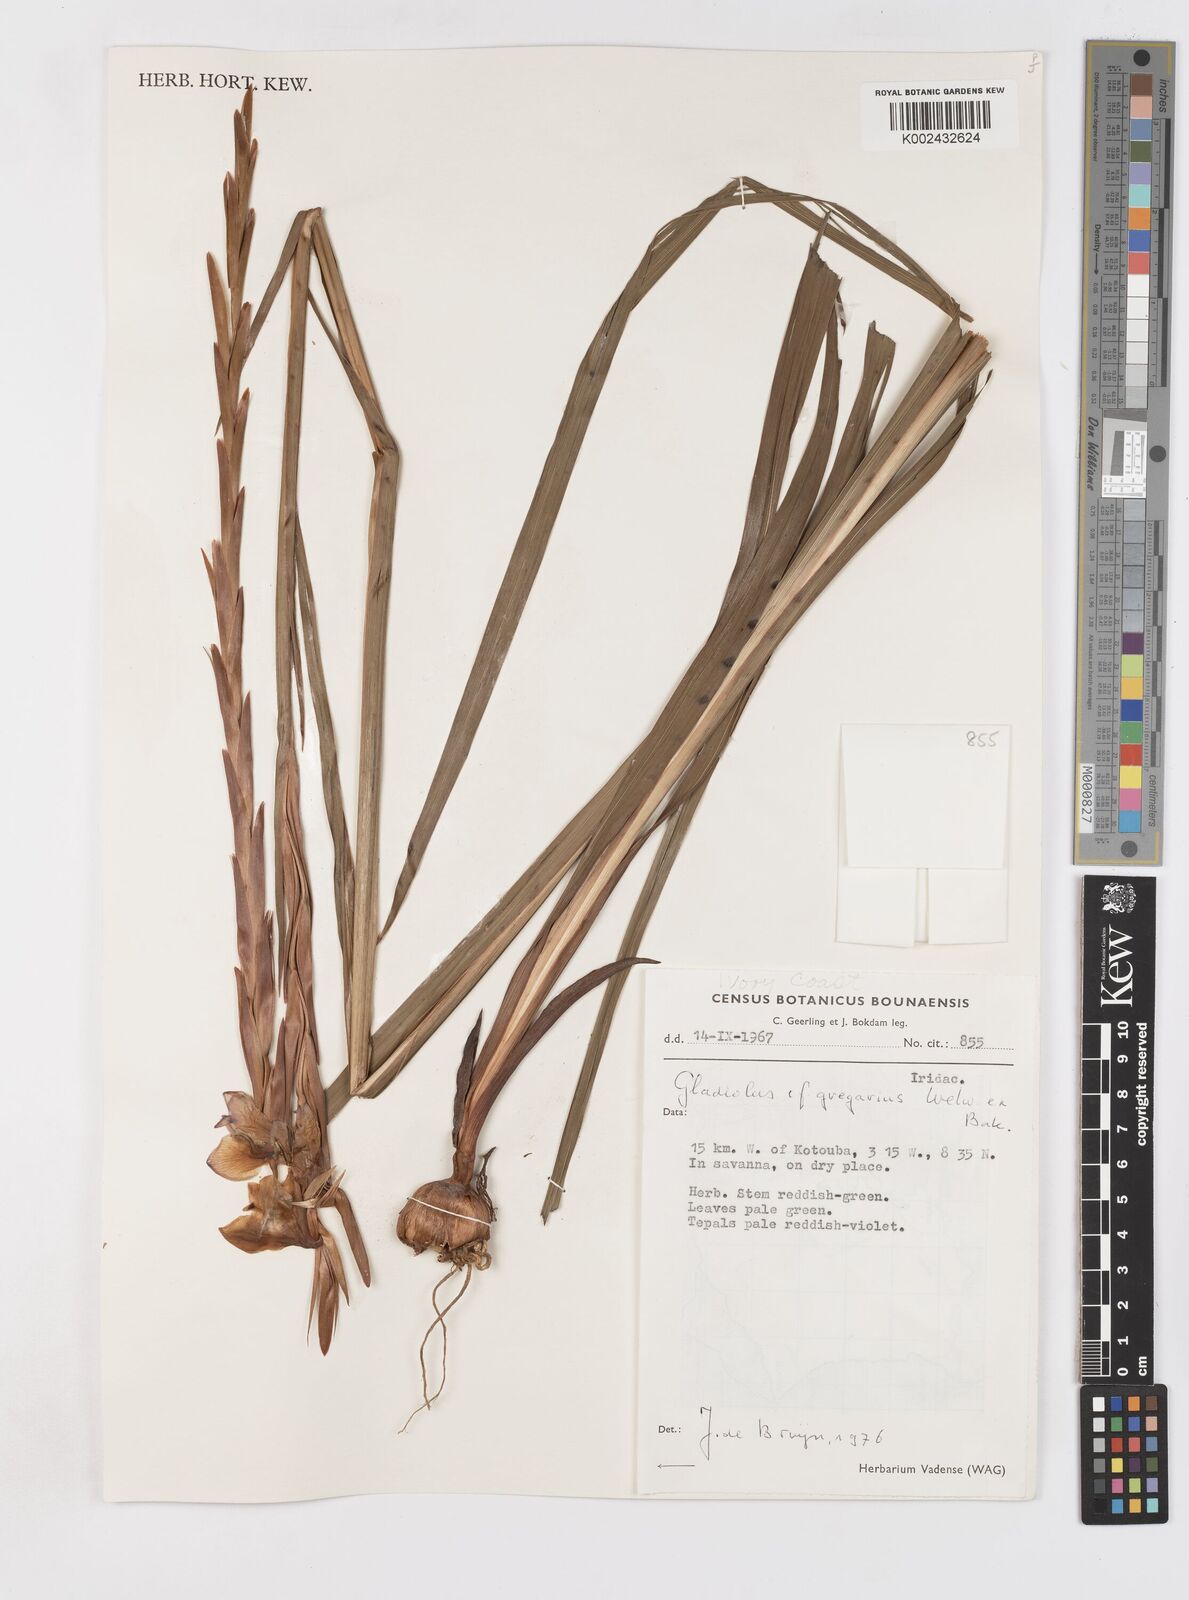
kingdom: Plantae
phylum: Tracheophyta
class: Liliopsida
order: Asparagales
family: Iridaceae
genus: Gladiolus
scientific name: Gladiolus gregarius
